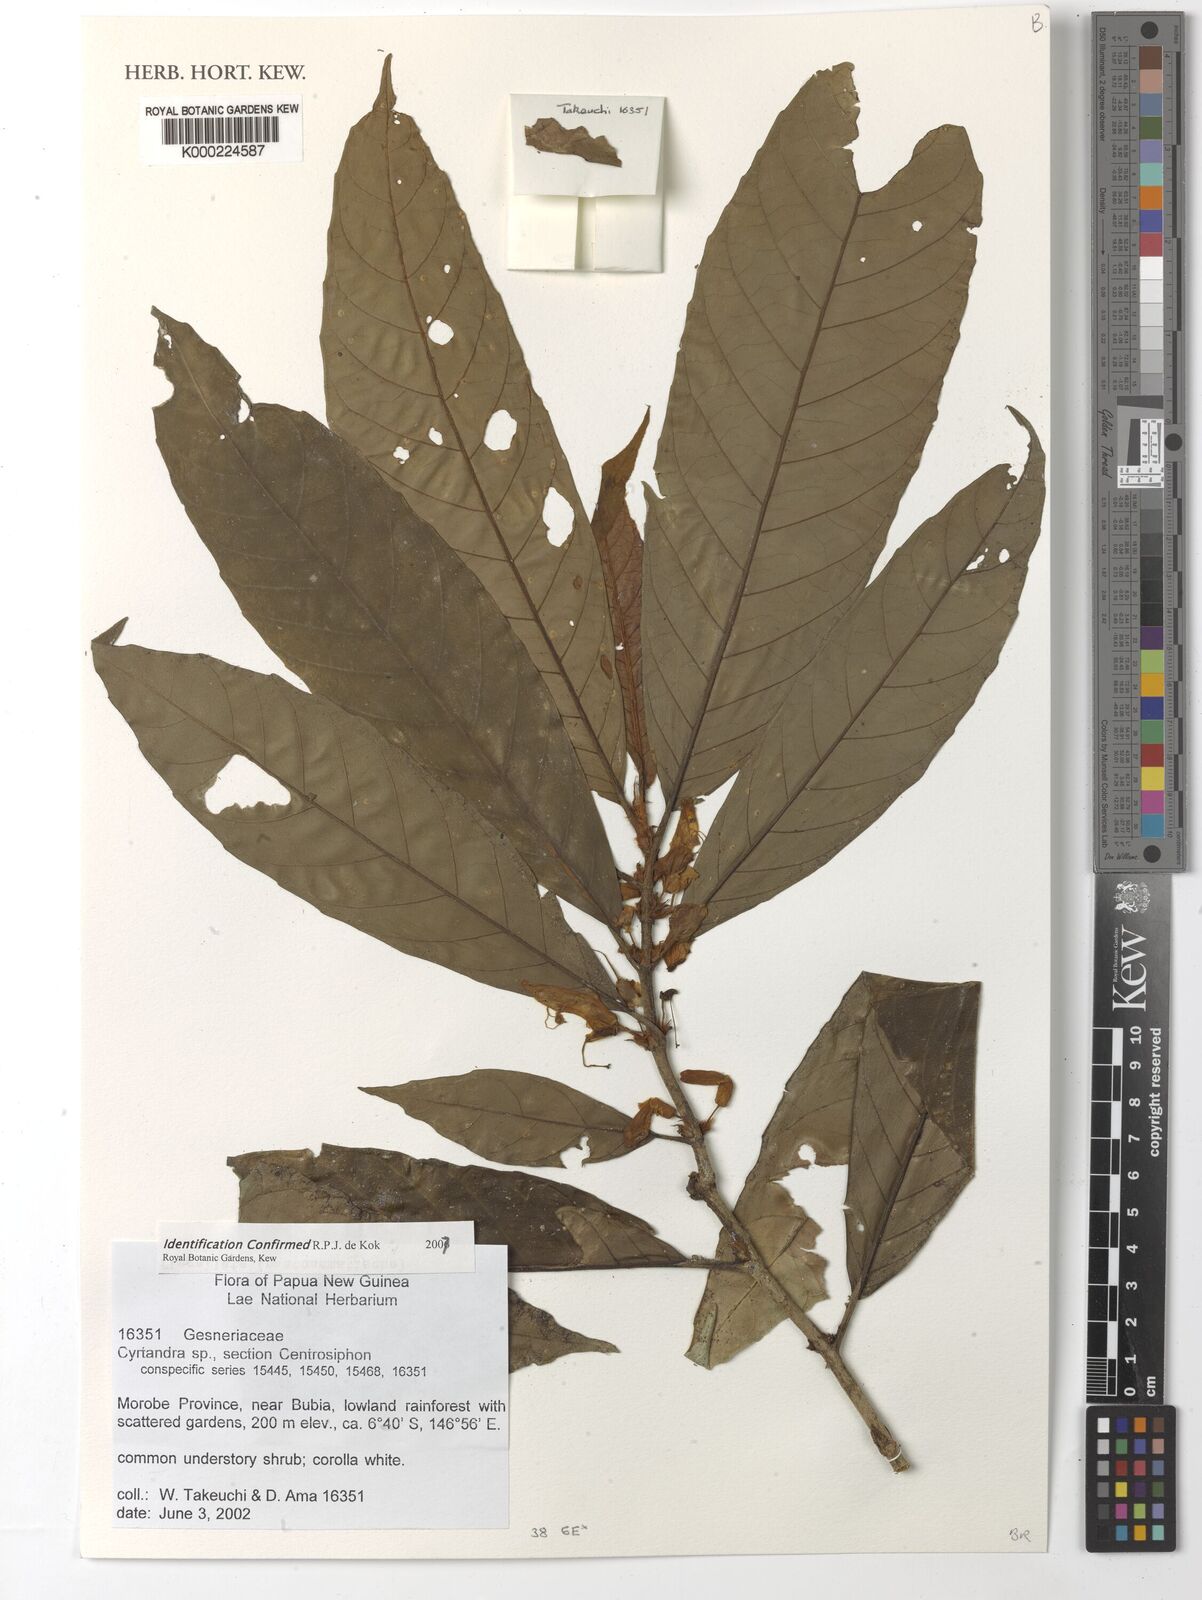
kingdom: Plantae
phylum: Tracheophyta
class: Magnoliopsida
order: Lamiales
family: Gesneriaceae
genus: Cyrtandra
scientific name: Cyrtandra
